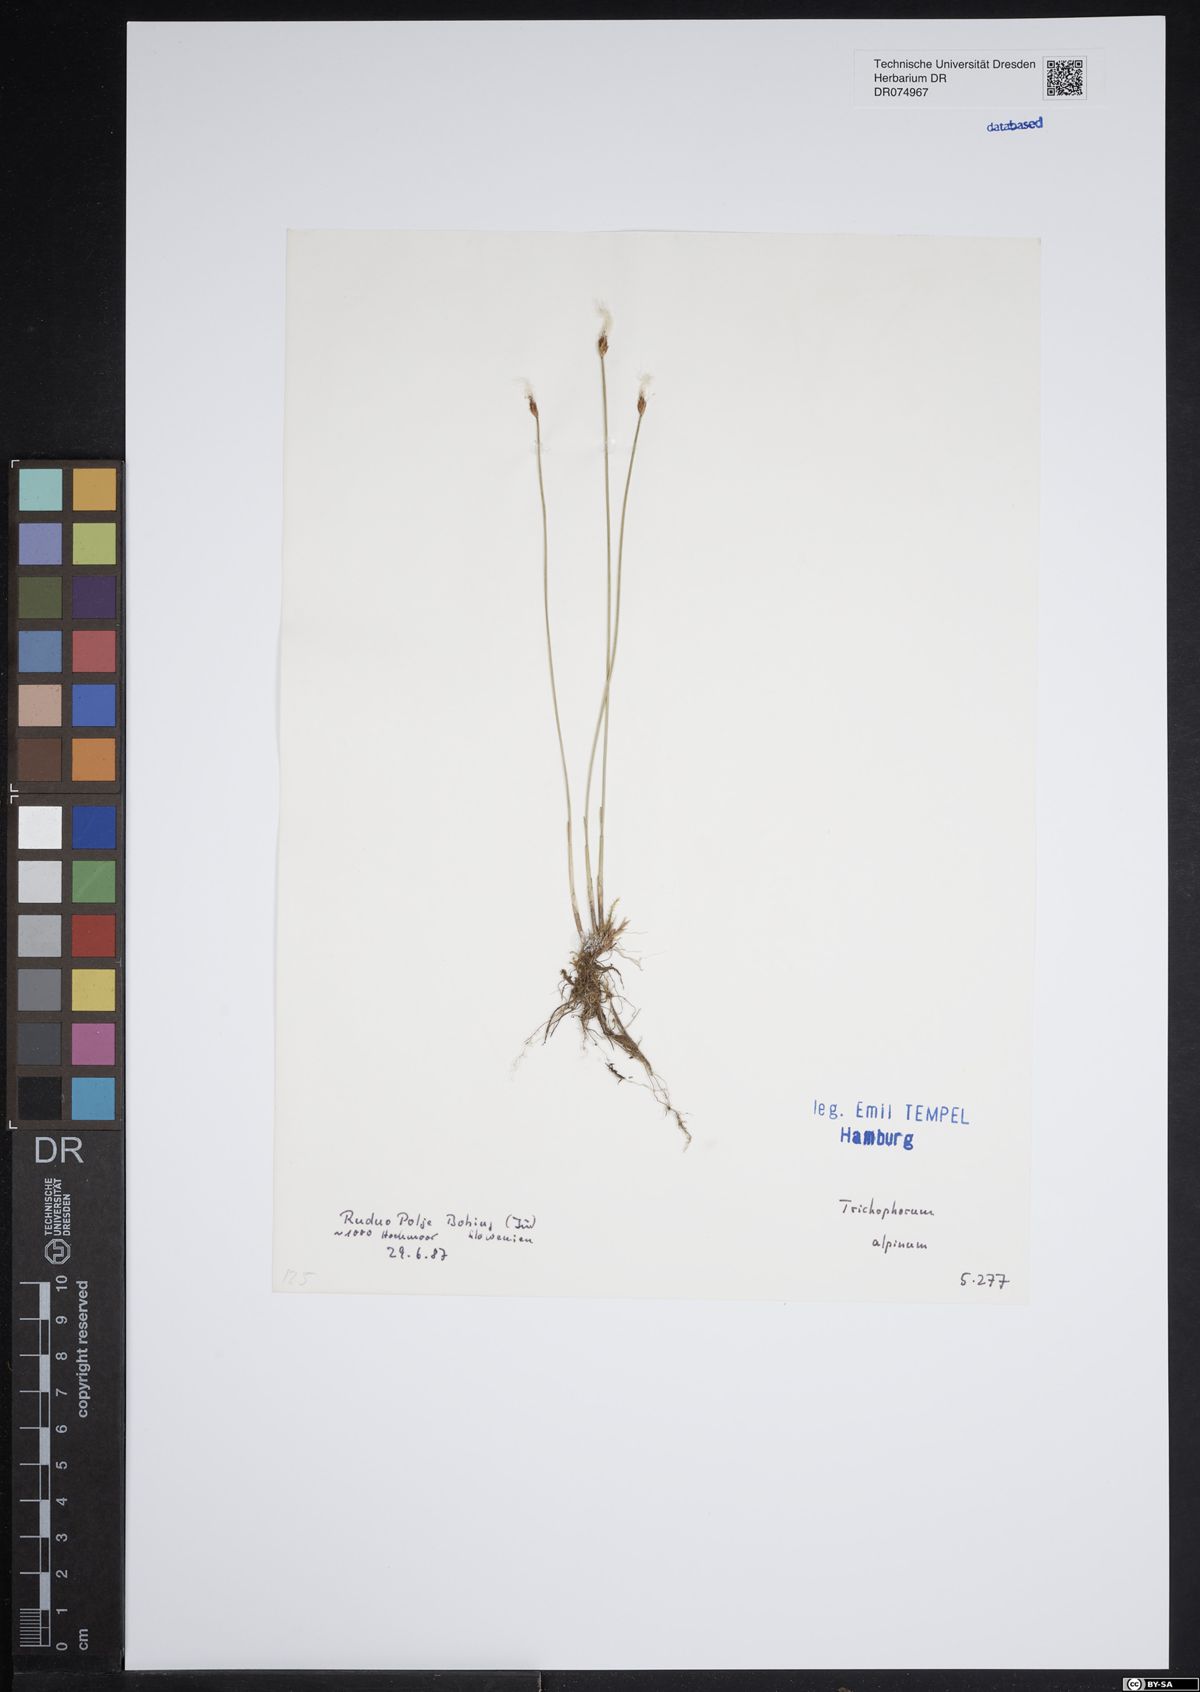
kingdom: Plantae
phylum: Tracheophyta
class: Liliopsida
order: Poales
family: Cyperaceae
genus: Trichophorum
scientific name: Trichophorum alpinum
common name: Alpine bulrush
